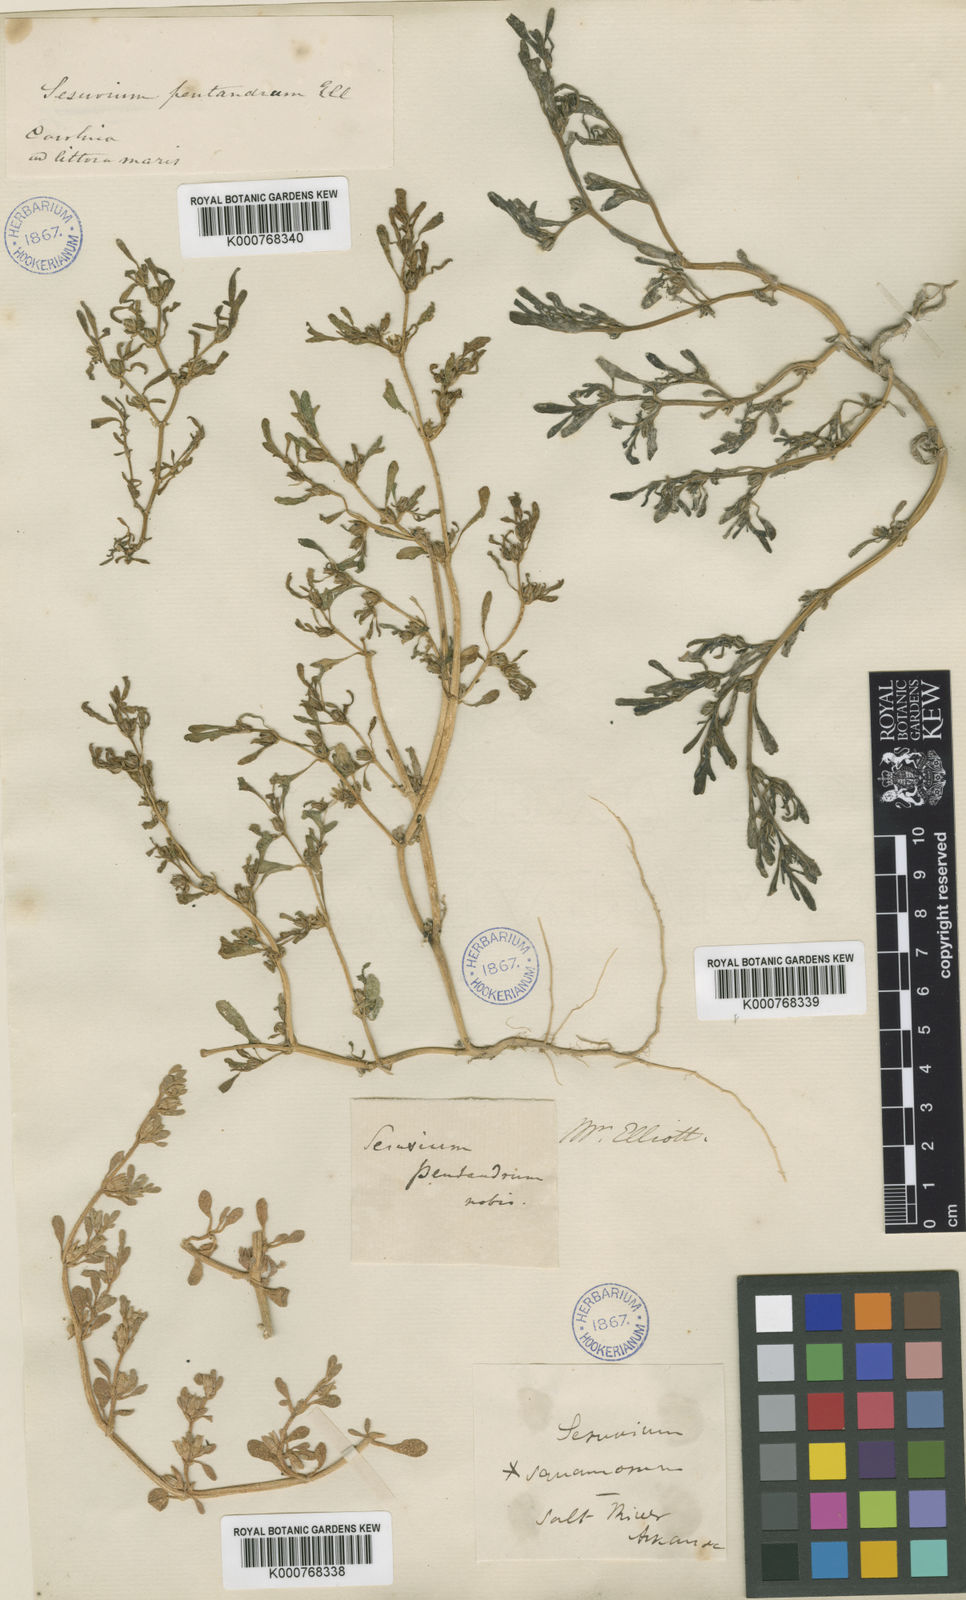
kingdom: Plantae
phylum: Tracheophyta
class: Magnoliopsida
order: Caryophyllales
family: Aizoaceae
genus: Sesuvium
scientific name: Sesuvium maritimum
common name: Slender sea-purslane
